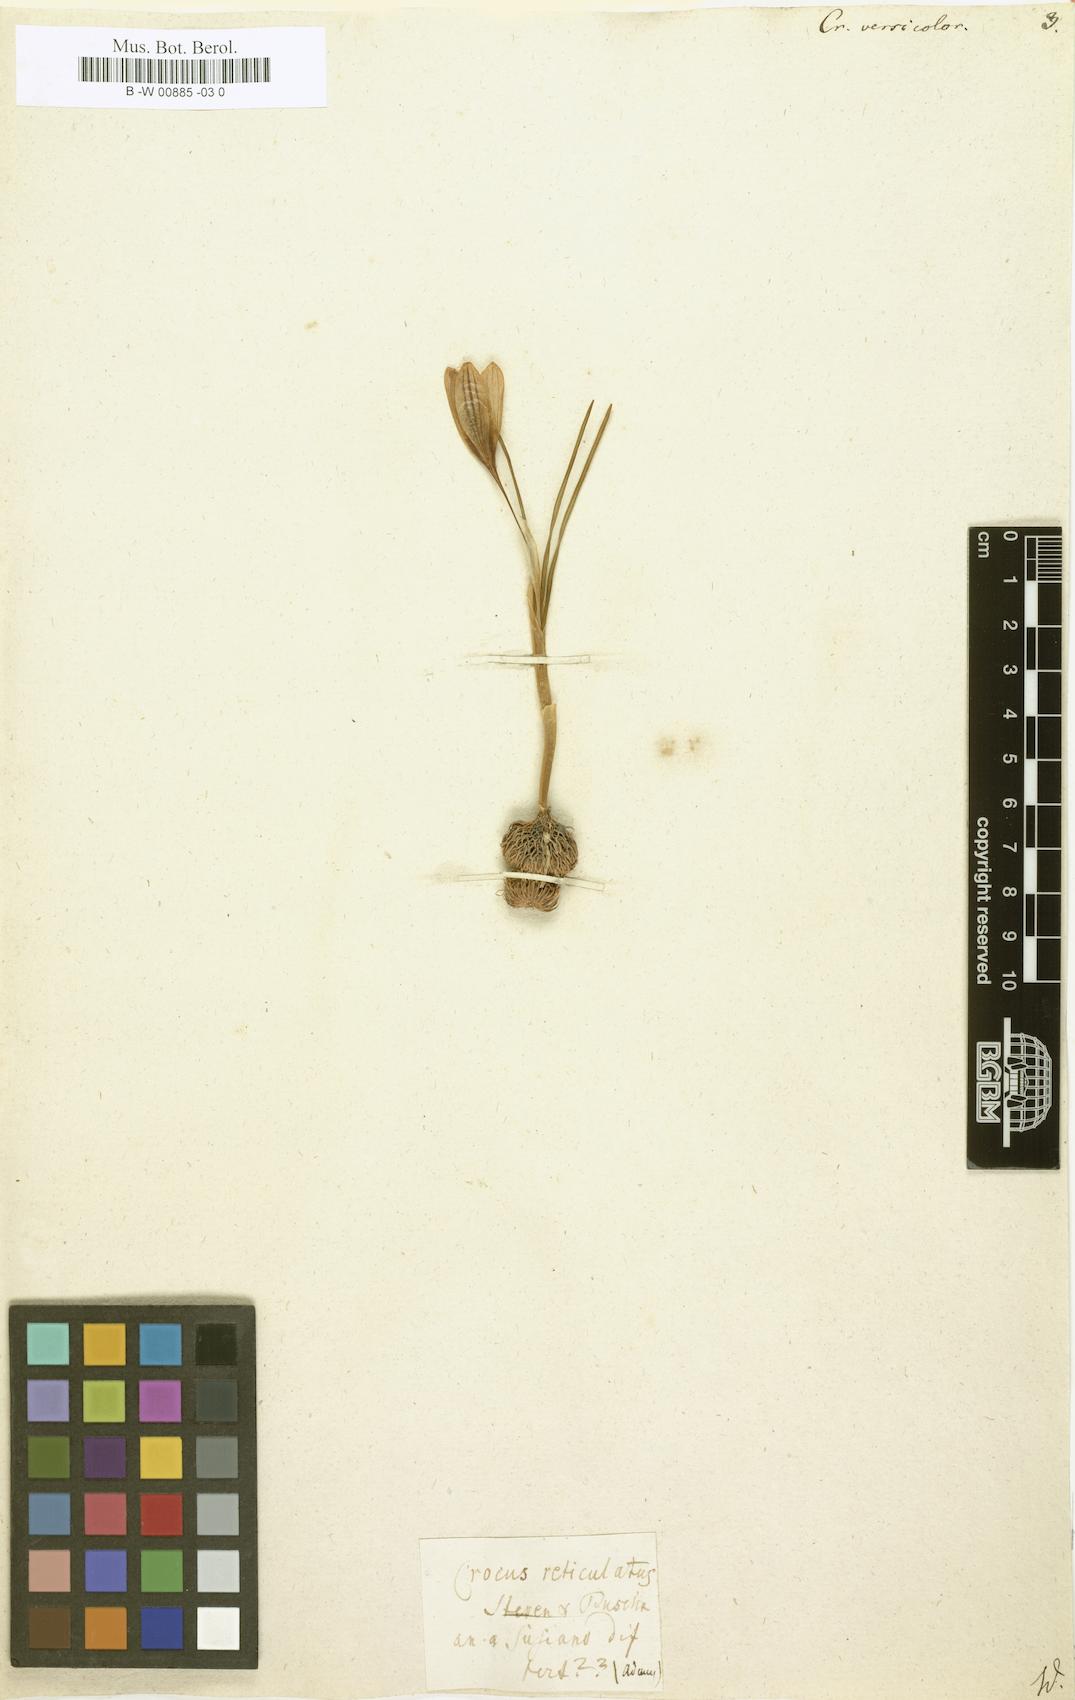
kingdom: Plantae
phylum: Tracheophyta
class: Liliopsida
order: Asparagales
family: Iridaceae
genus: Crocus
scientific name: Crocus versicolor
